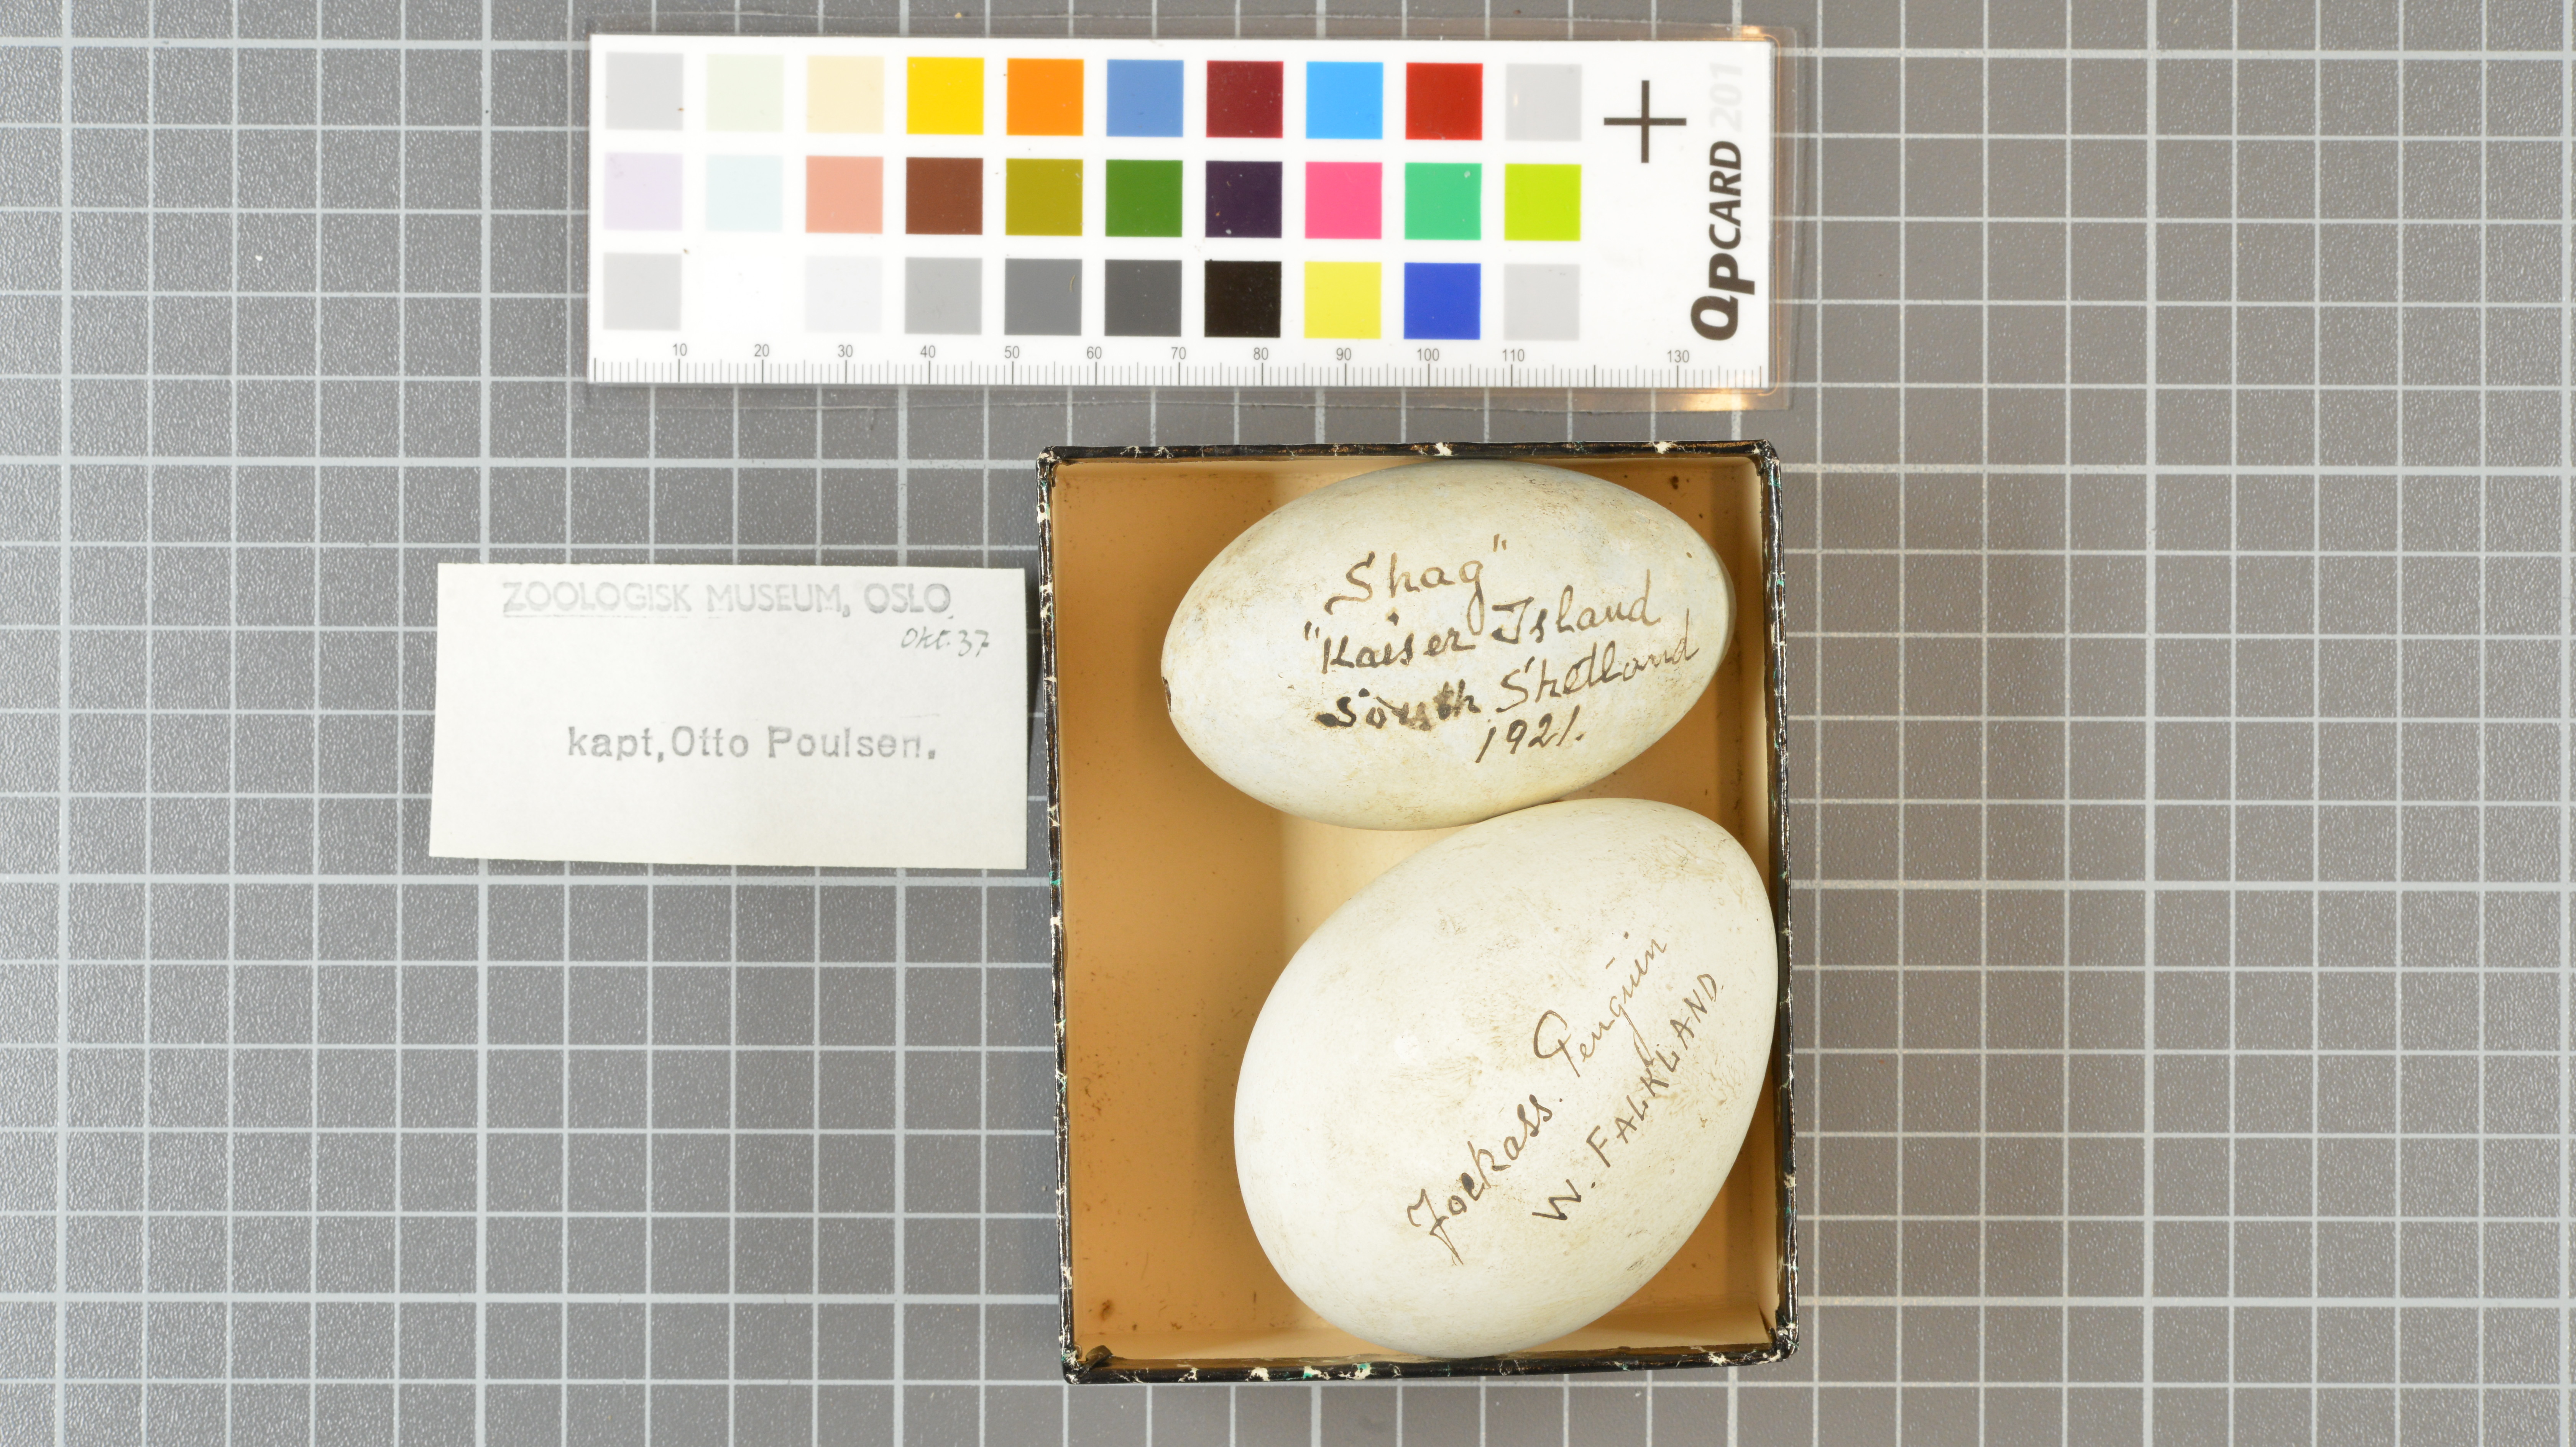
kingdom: Animalia
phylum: Chordata
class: Aves
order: Sphenisciformes
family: Spheniscidae
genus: Spheniscus
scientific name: Spheniscus magellanicus
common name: Magellanic penguin
